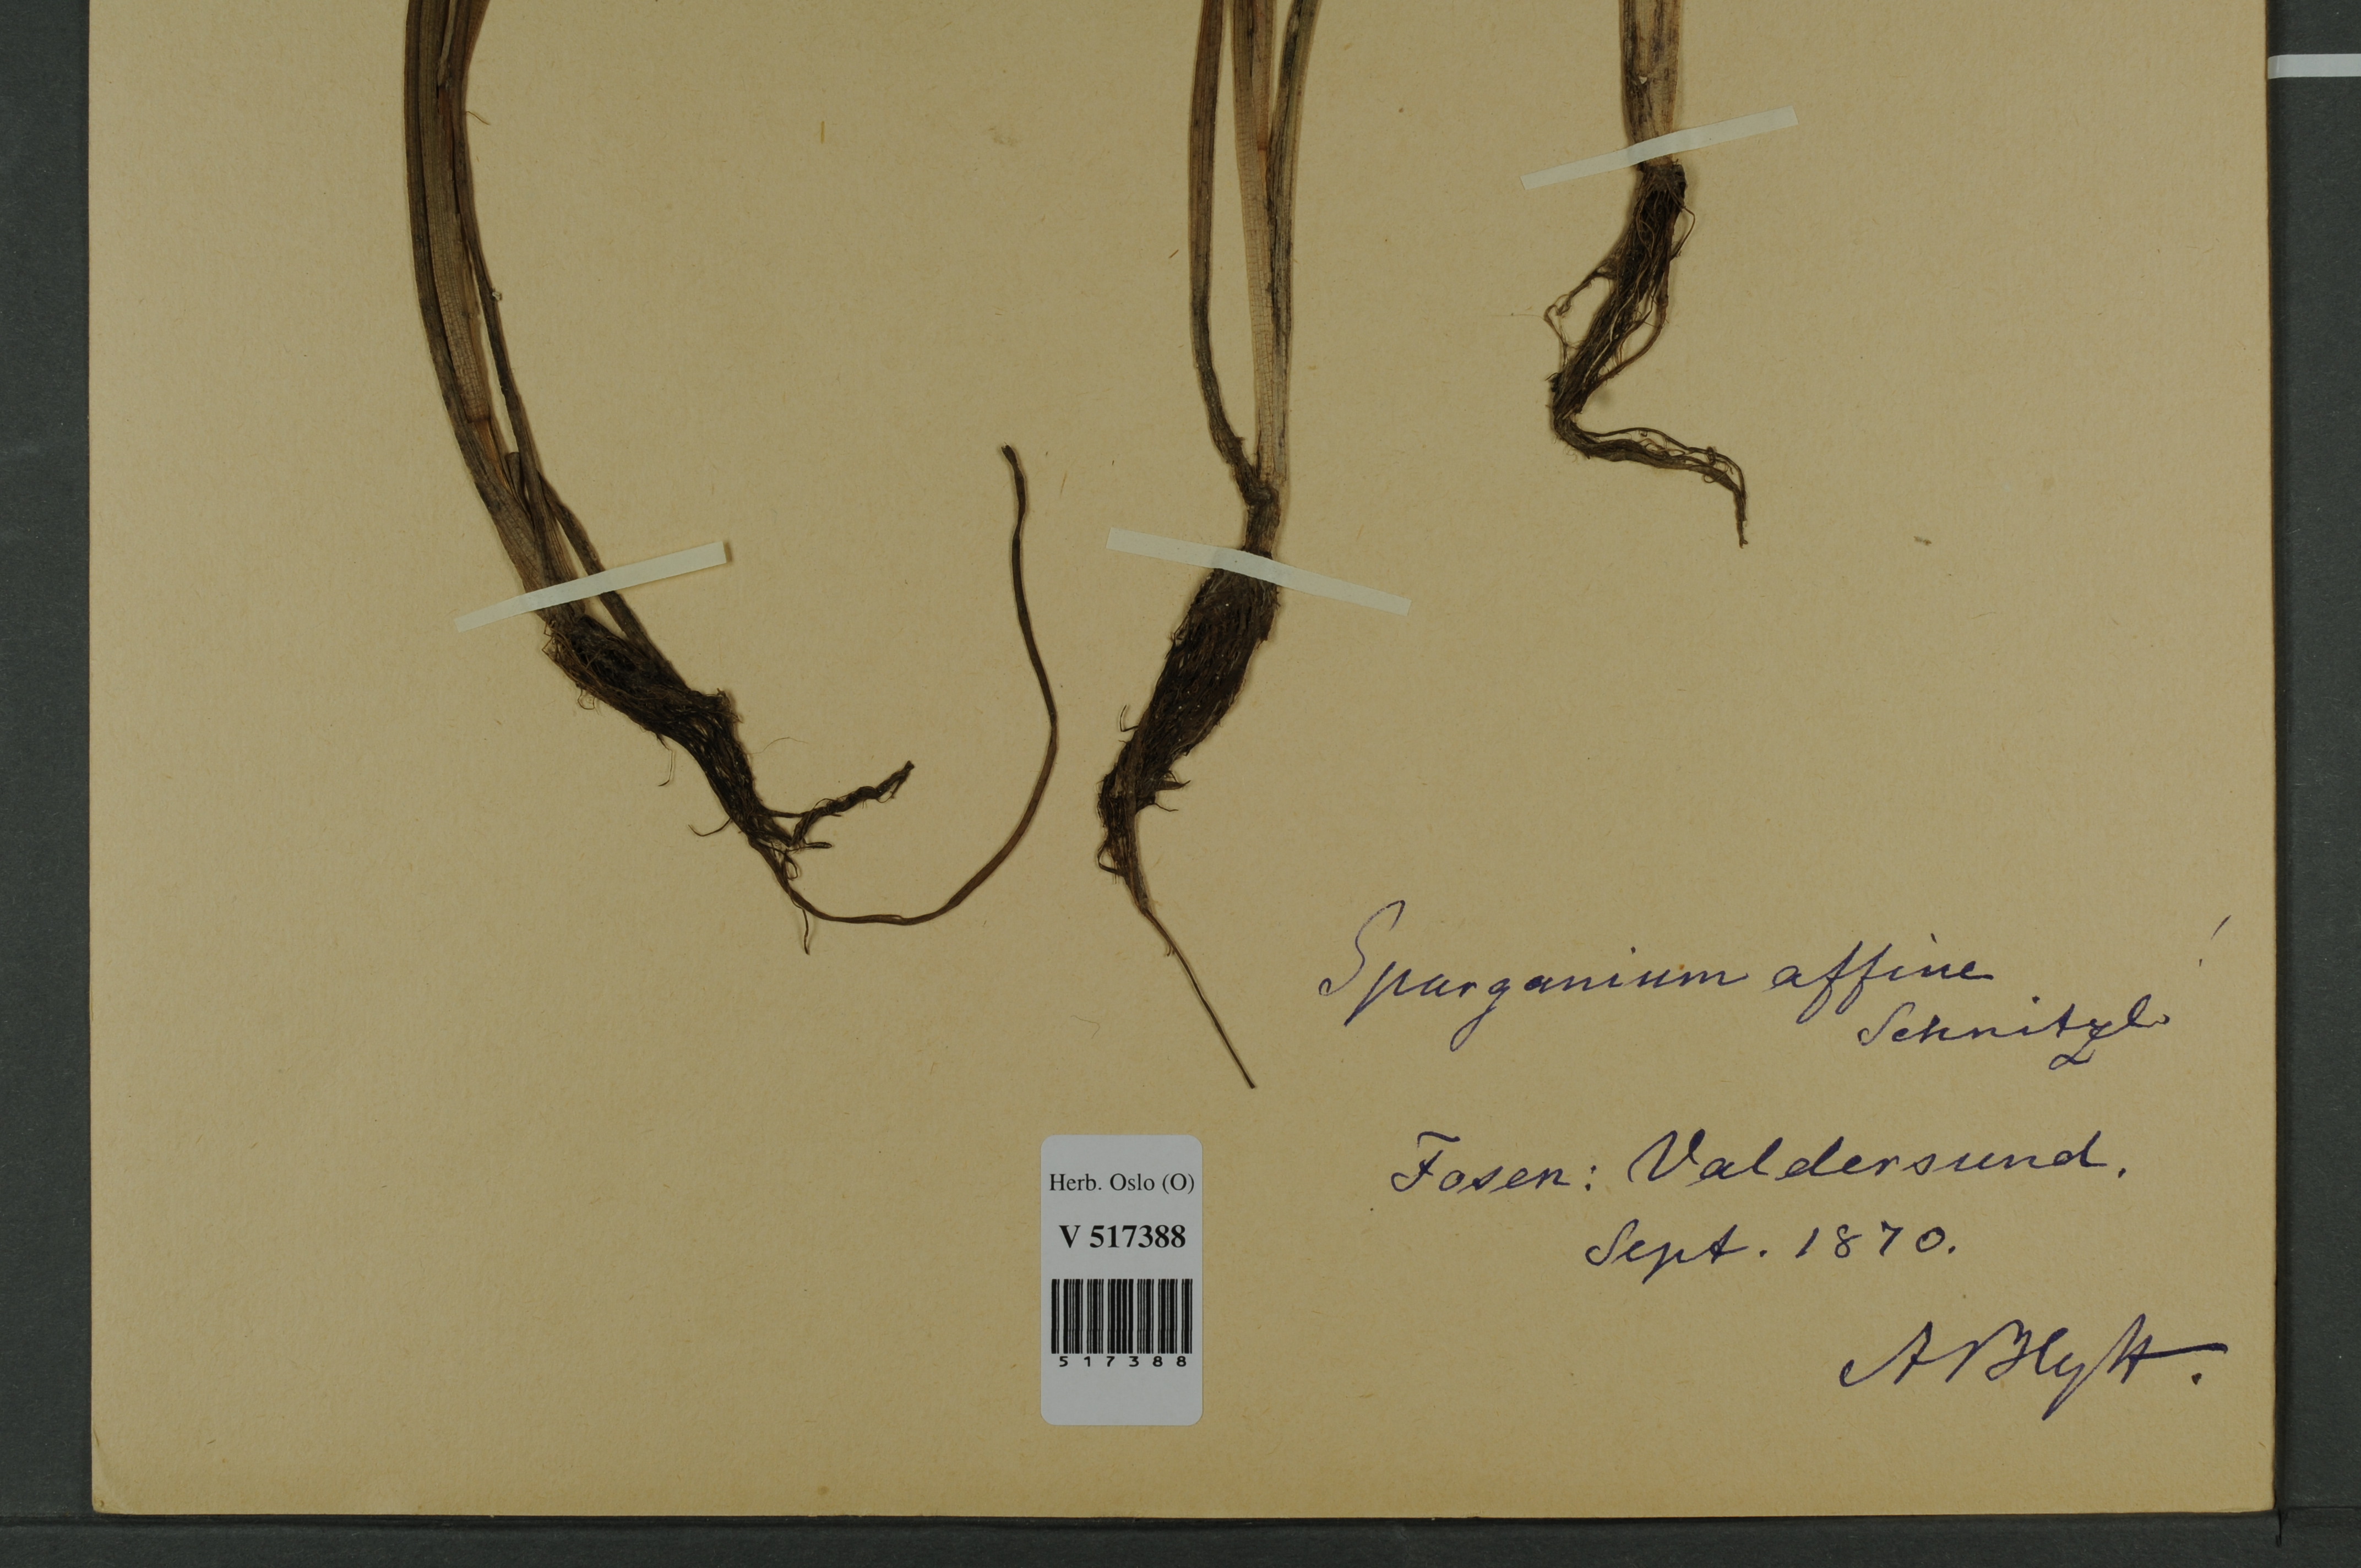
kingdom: Plantae
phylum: Tracheophyta
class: Liliopsida
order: Poales
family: Typhaceae
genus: Sparganium
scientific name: Sparganium angustifolium
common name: Floating bur-reed
